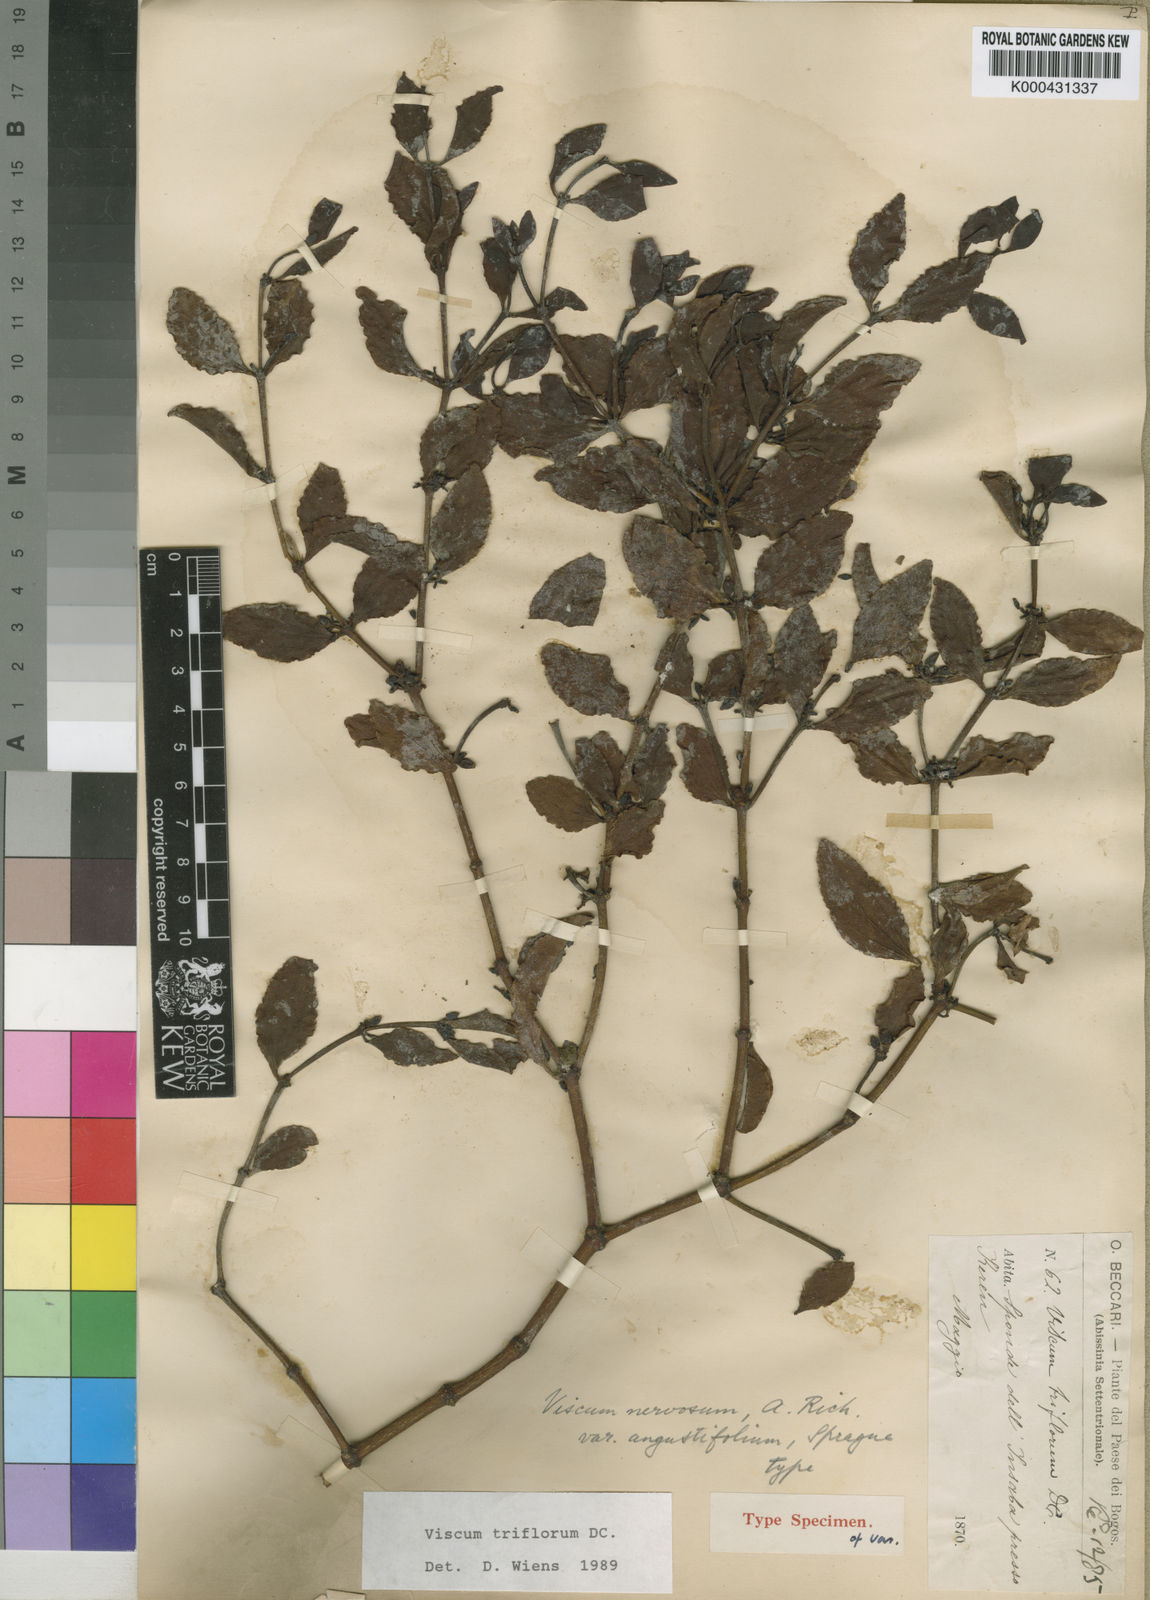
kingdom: Plantae
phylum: Tracheophyta
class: Magnoliopsida
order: Santalales
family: Viscaceae
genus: Viscum
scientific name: Viscum triflorum
